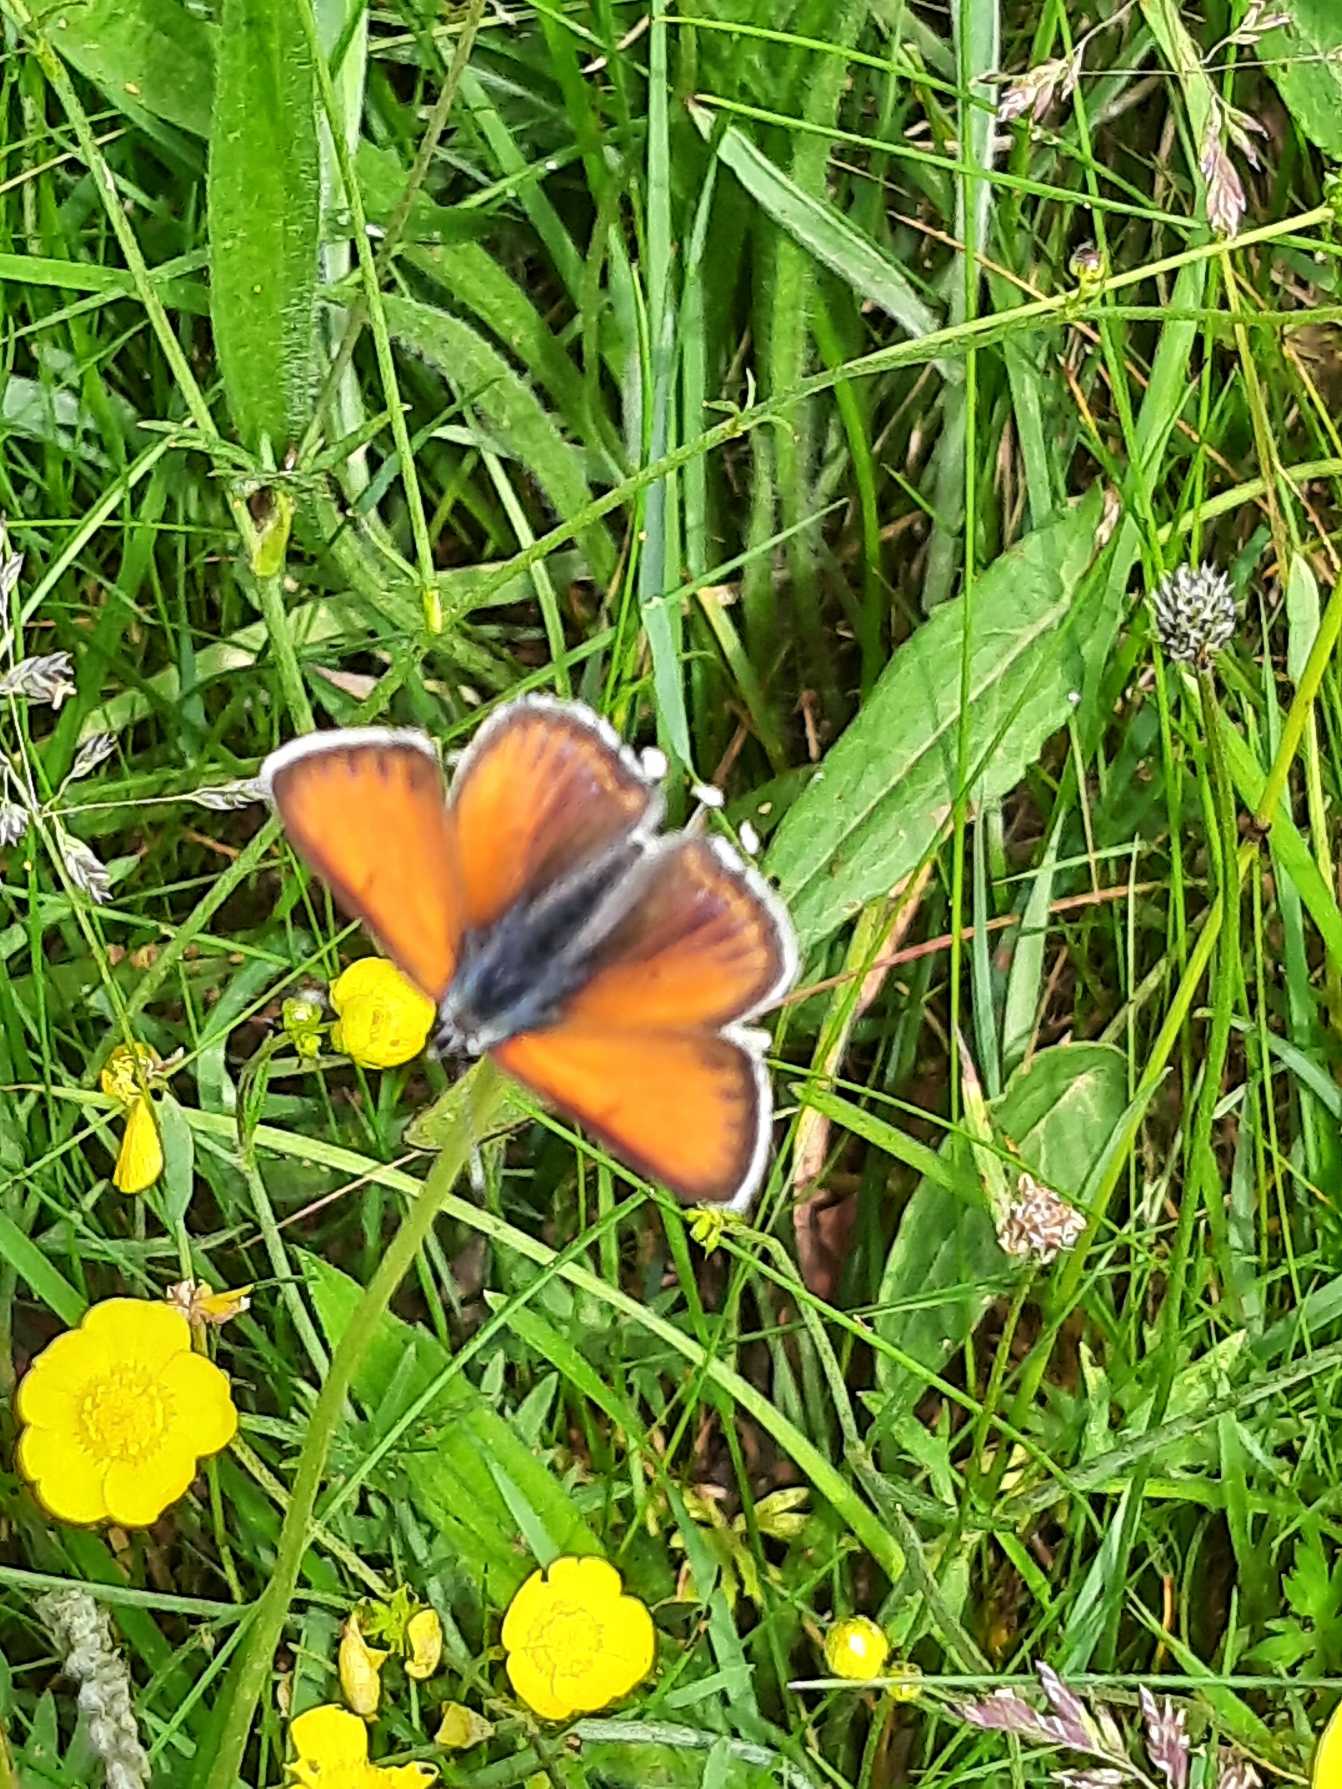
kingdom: Animalia
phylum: Arthropoda
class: Insecta
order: Lepidoptera
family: Lycaenidae
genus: Palaeochrysophanus
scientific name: Palaeochrysophanus hippothoe
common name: Violetrandet ildfugl
